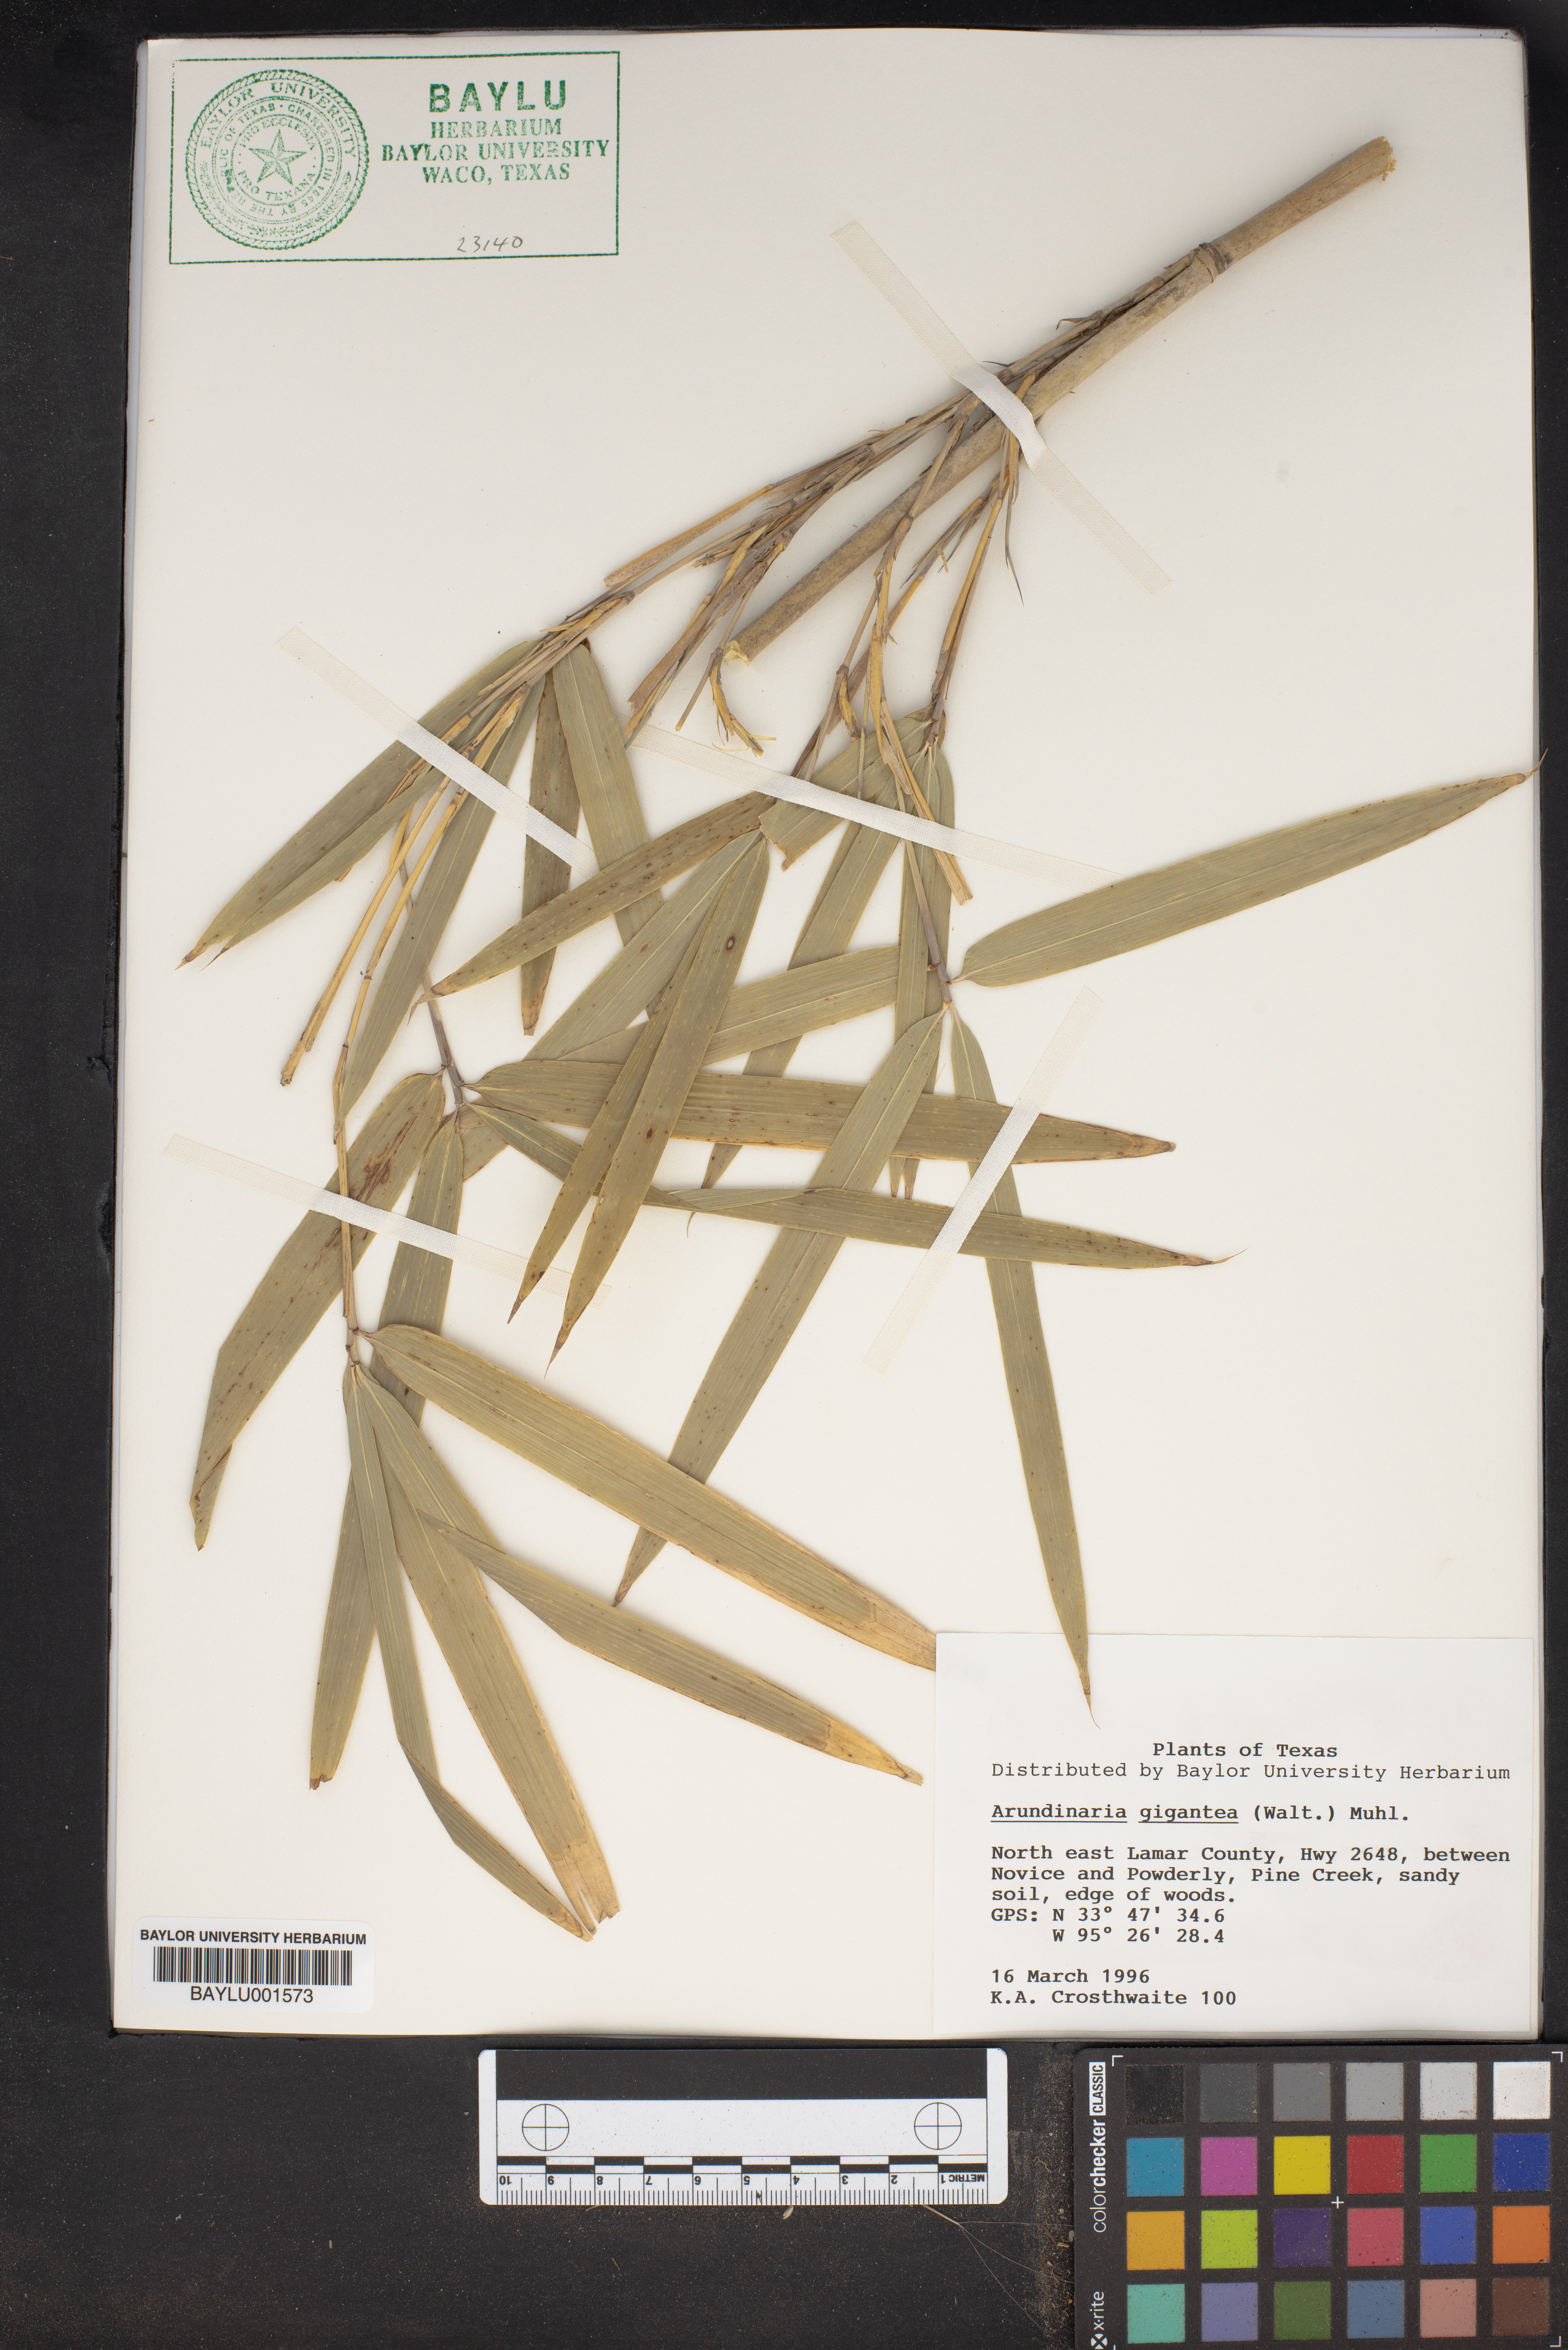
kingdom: Plantae
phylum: Tracheophyta
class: Liliopsida
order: Poales
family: Poaceae
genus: Arundinaria
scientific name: Arundinaria gigantea
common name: Giant cane
